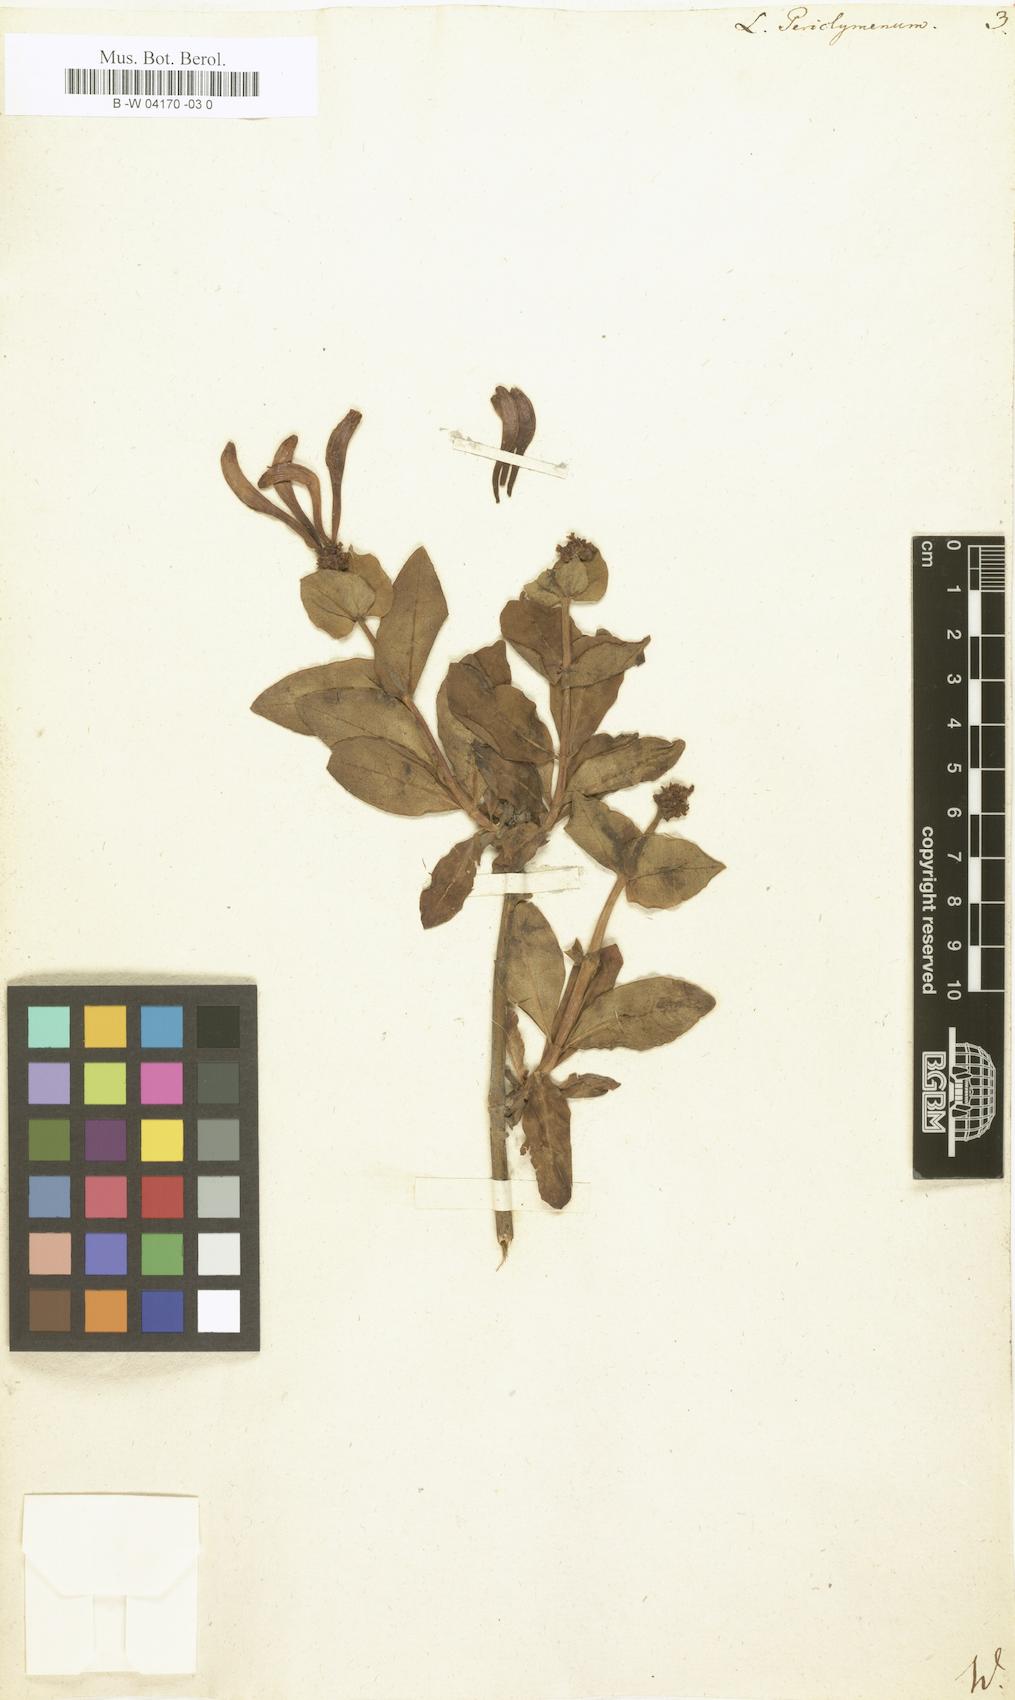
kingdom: Plantae
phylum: Tracheophyta
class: Magnoliopsida
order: Dipsacales
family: Caprifoliaceae
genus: Lonicera
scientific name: Lonicera periclymenum
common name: European honeysuckle
